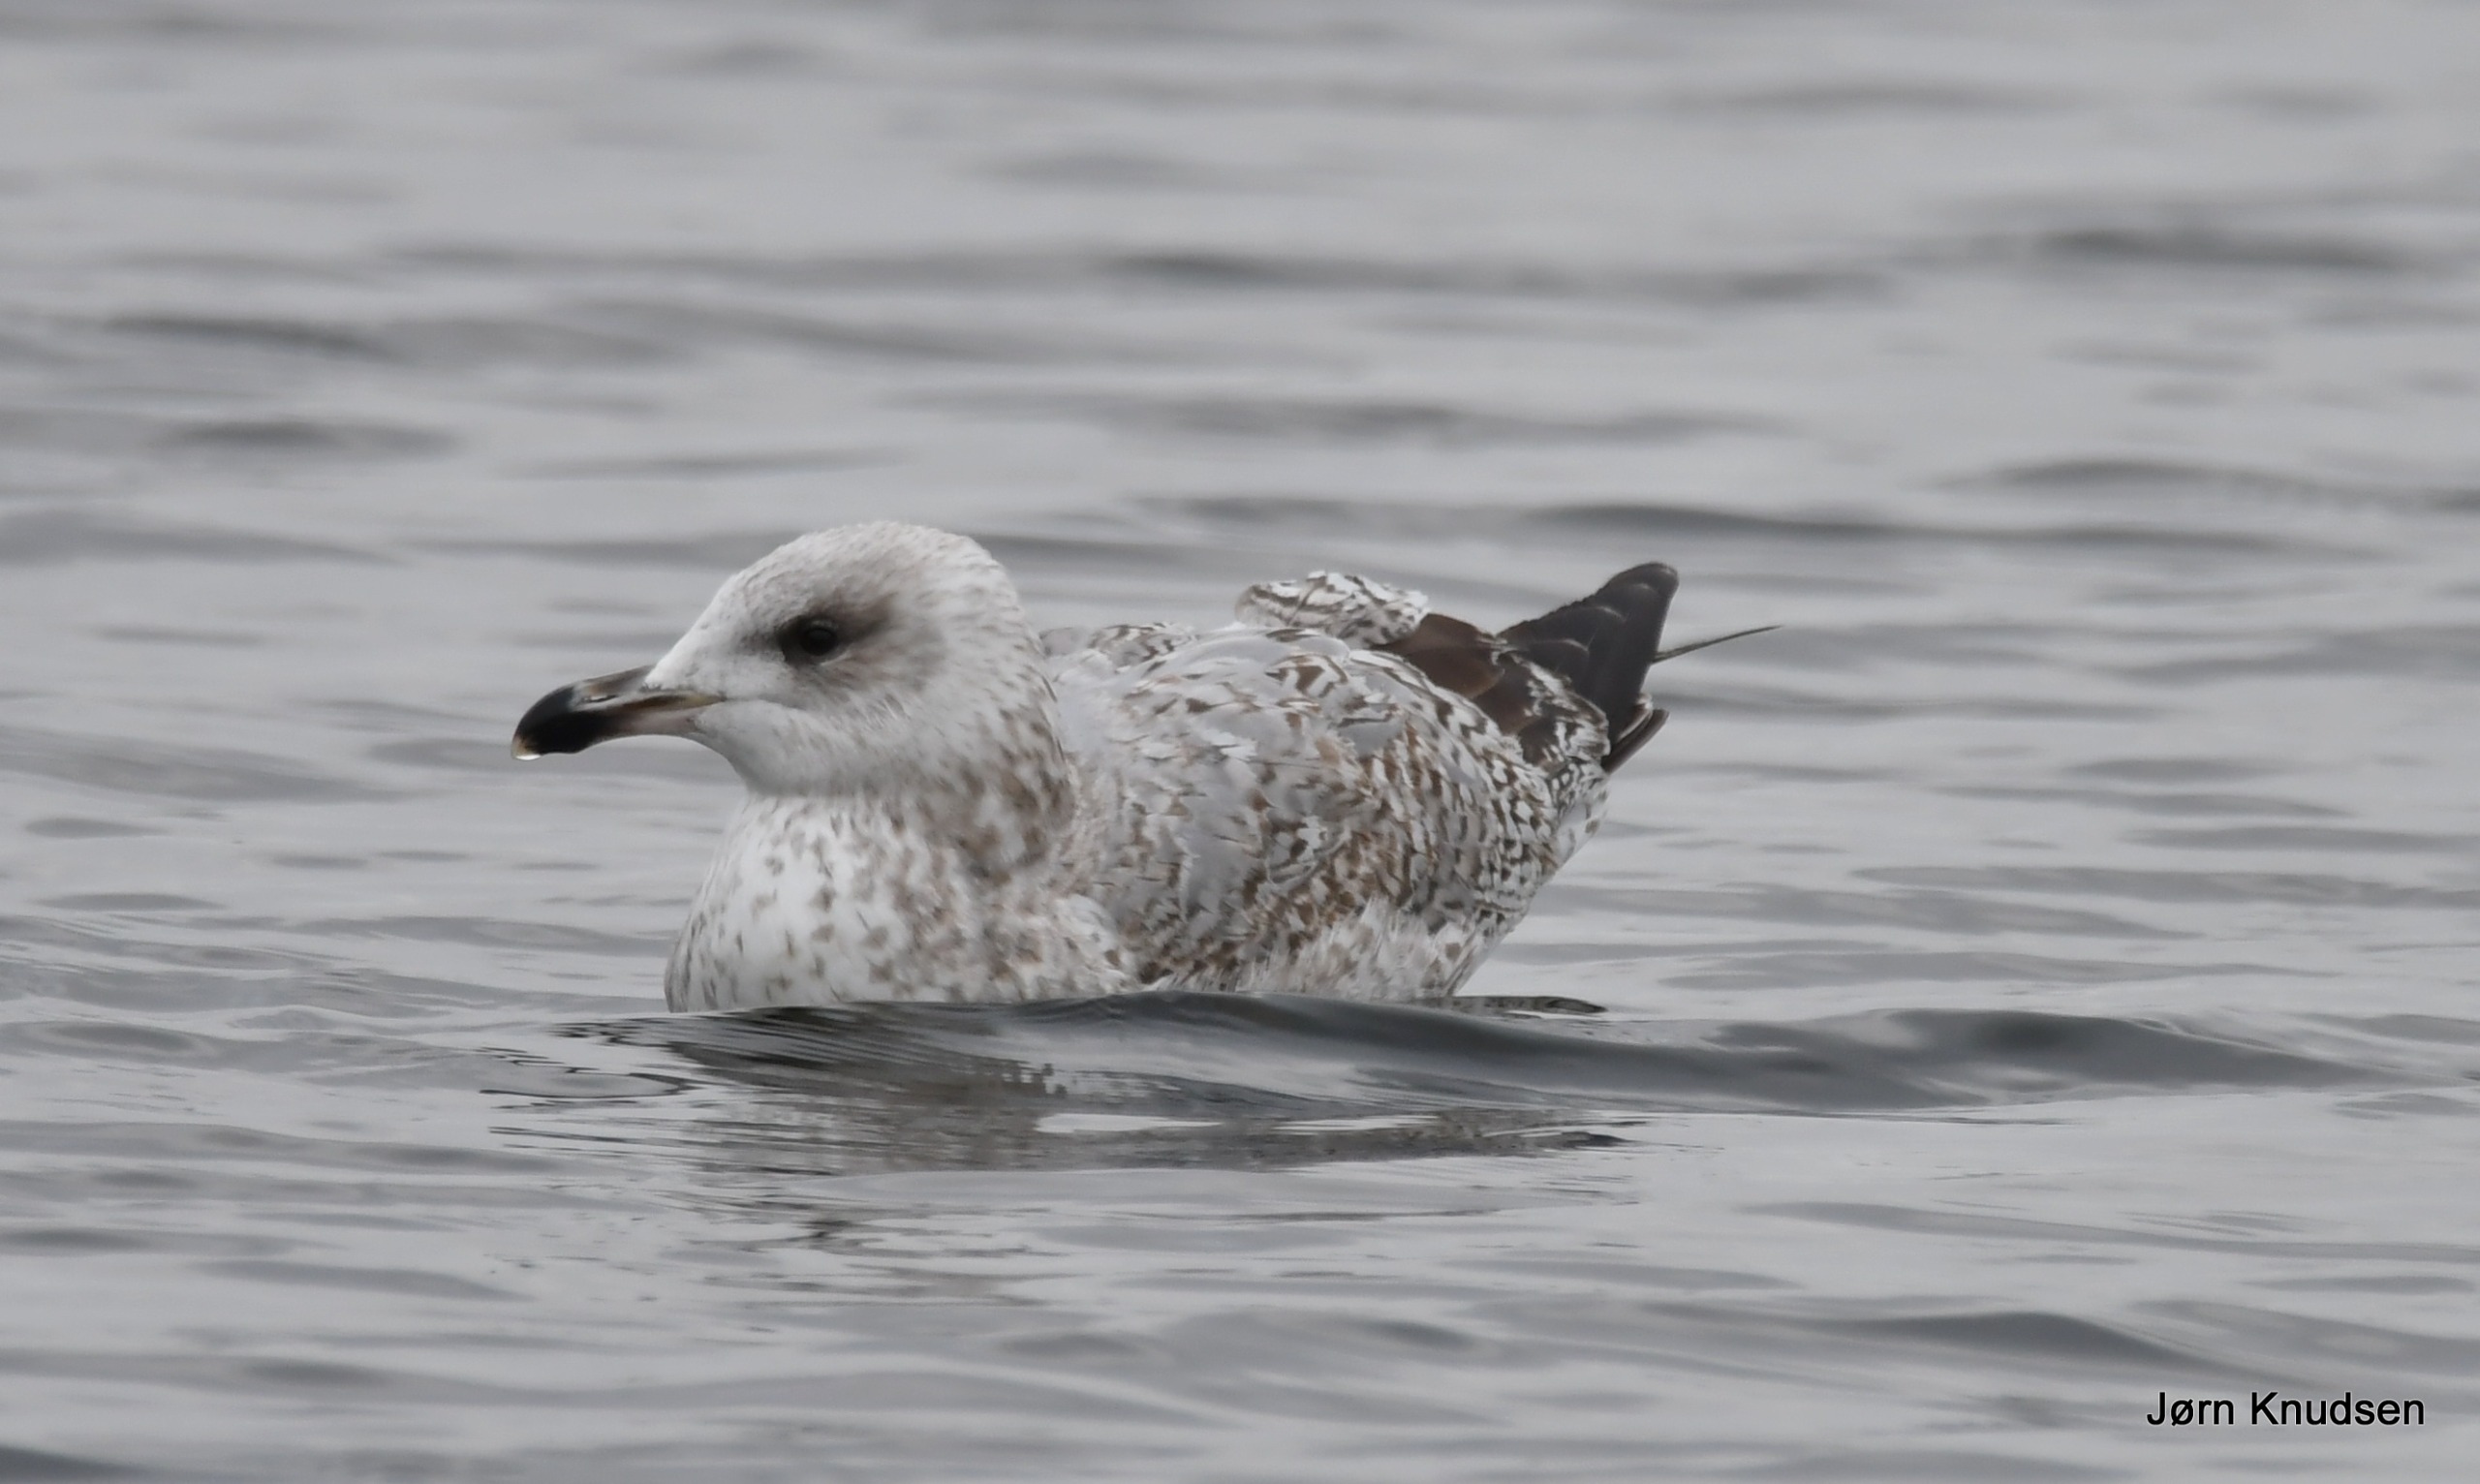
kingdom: Animalia
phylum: Chordata
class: Aves
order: Charadriiformes
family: Laridae
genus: Larus
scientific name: Larus argentatus
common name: Sølvmåge
